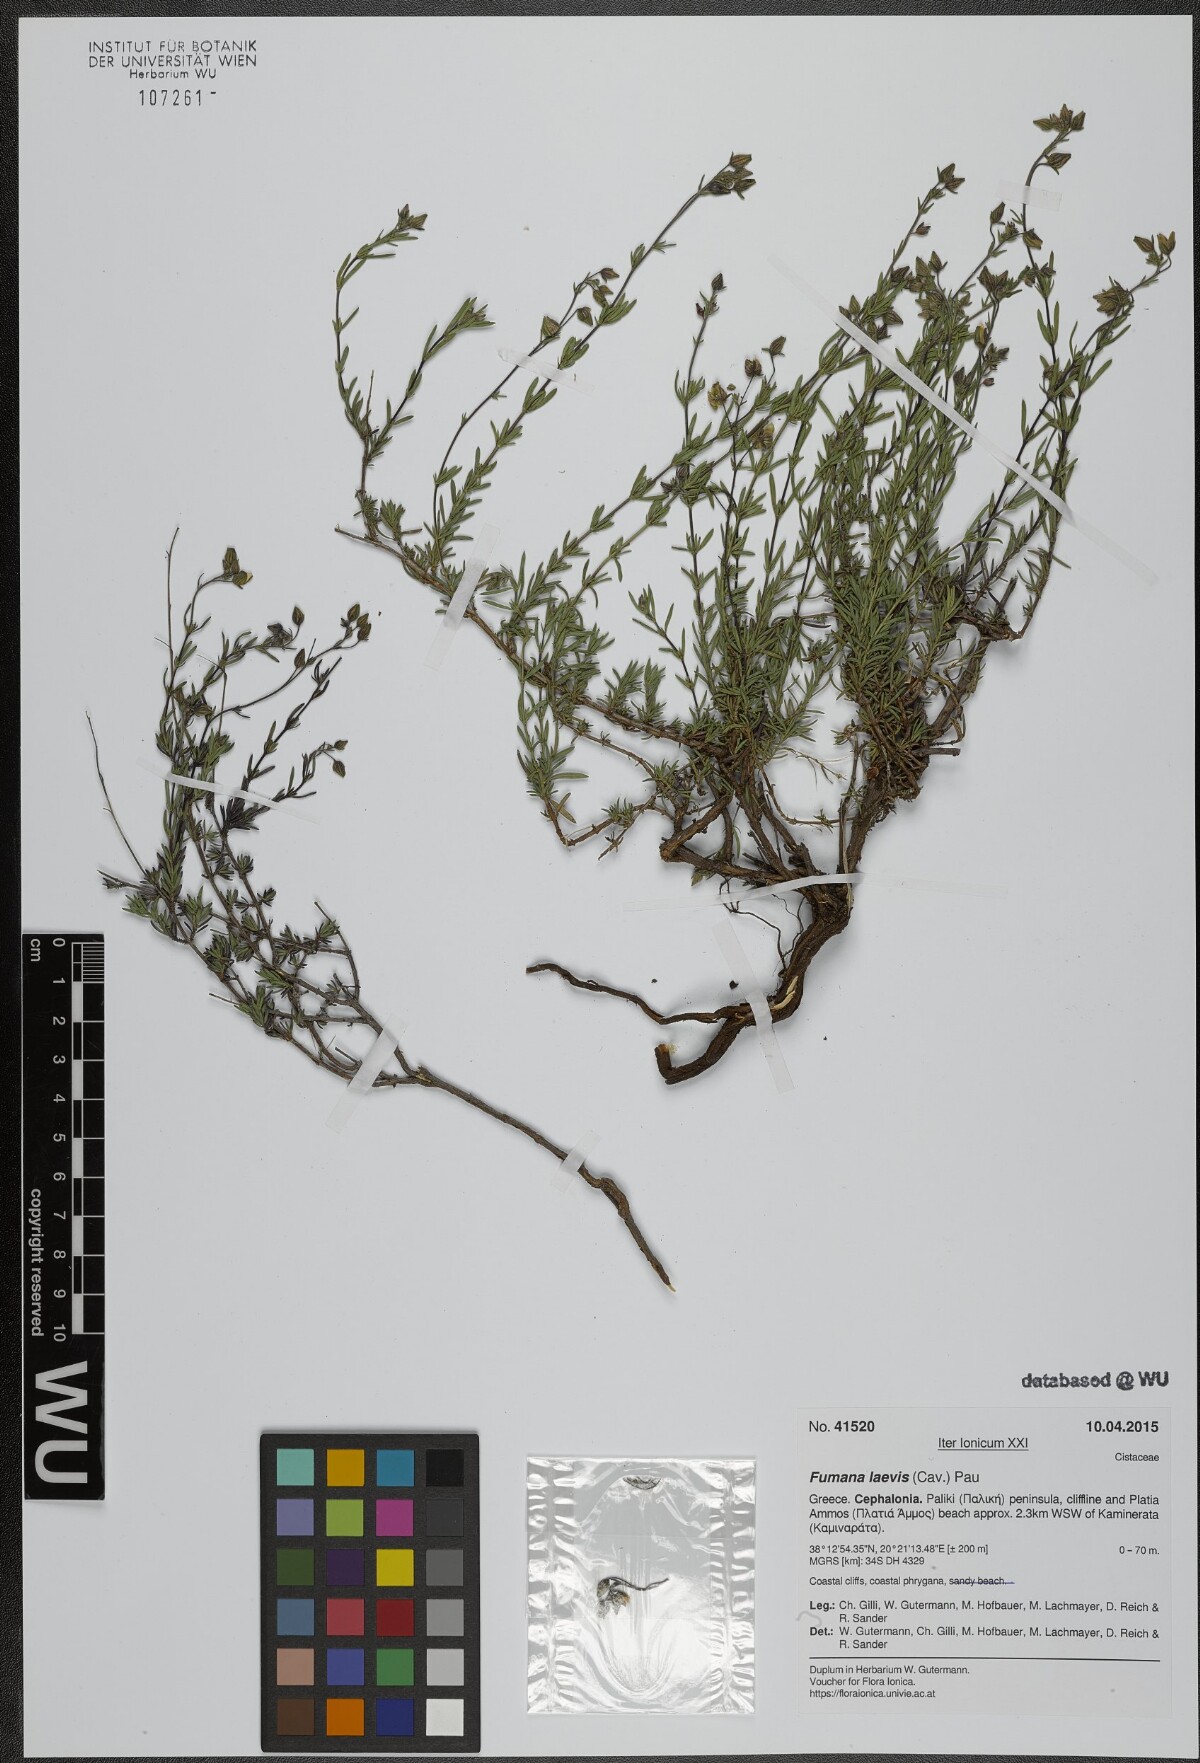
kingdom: Plantae
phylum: Tracheophyta
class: Magnoliopsida
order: Malvales
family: Cistaceae
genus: Fumana
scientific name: Fumana laevis
